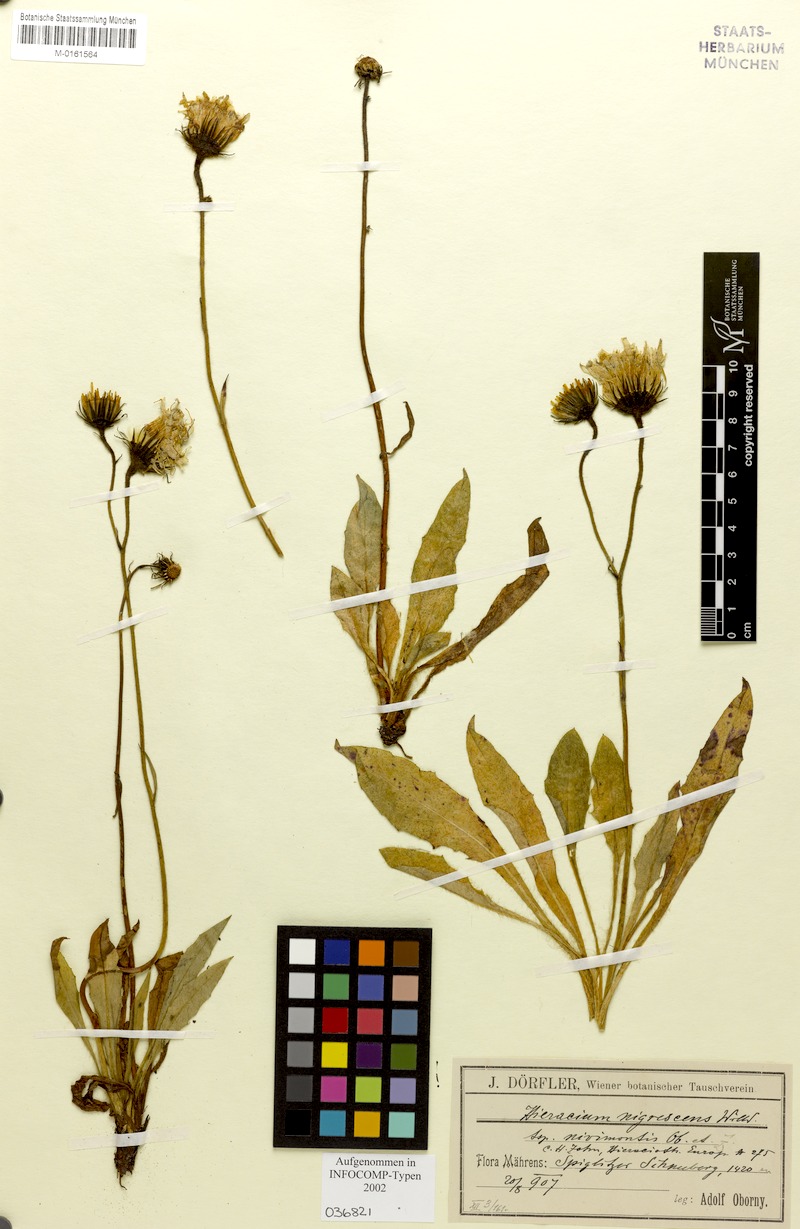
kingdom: Plantae
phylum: Tracheophyta
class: Magnoliopsida
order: Asterales
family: Asteraceae
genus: Hieracium
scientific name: Hieracium nigrescens
